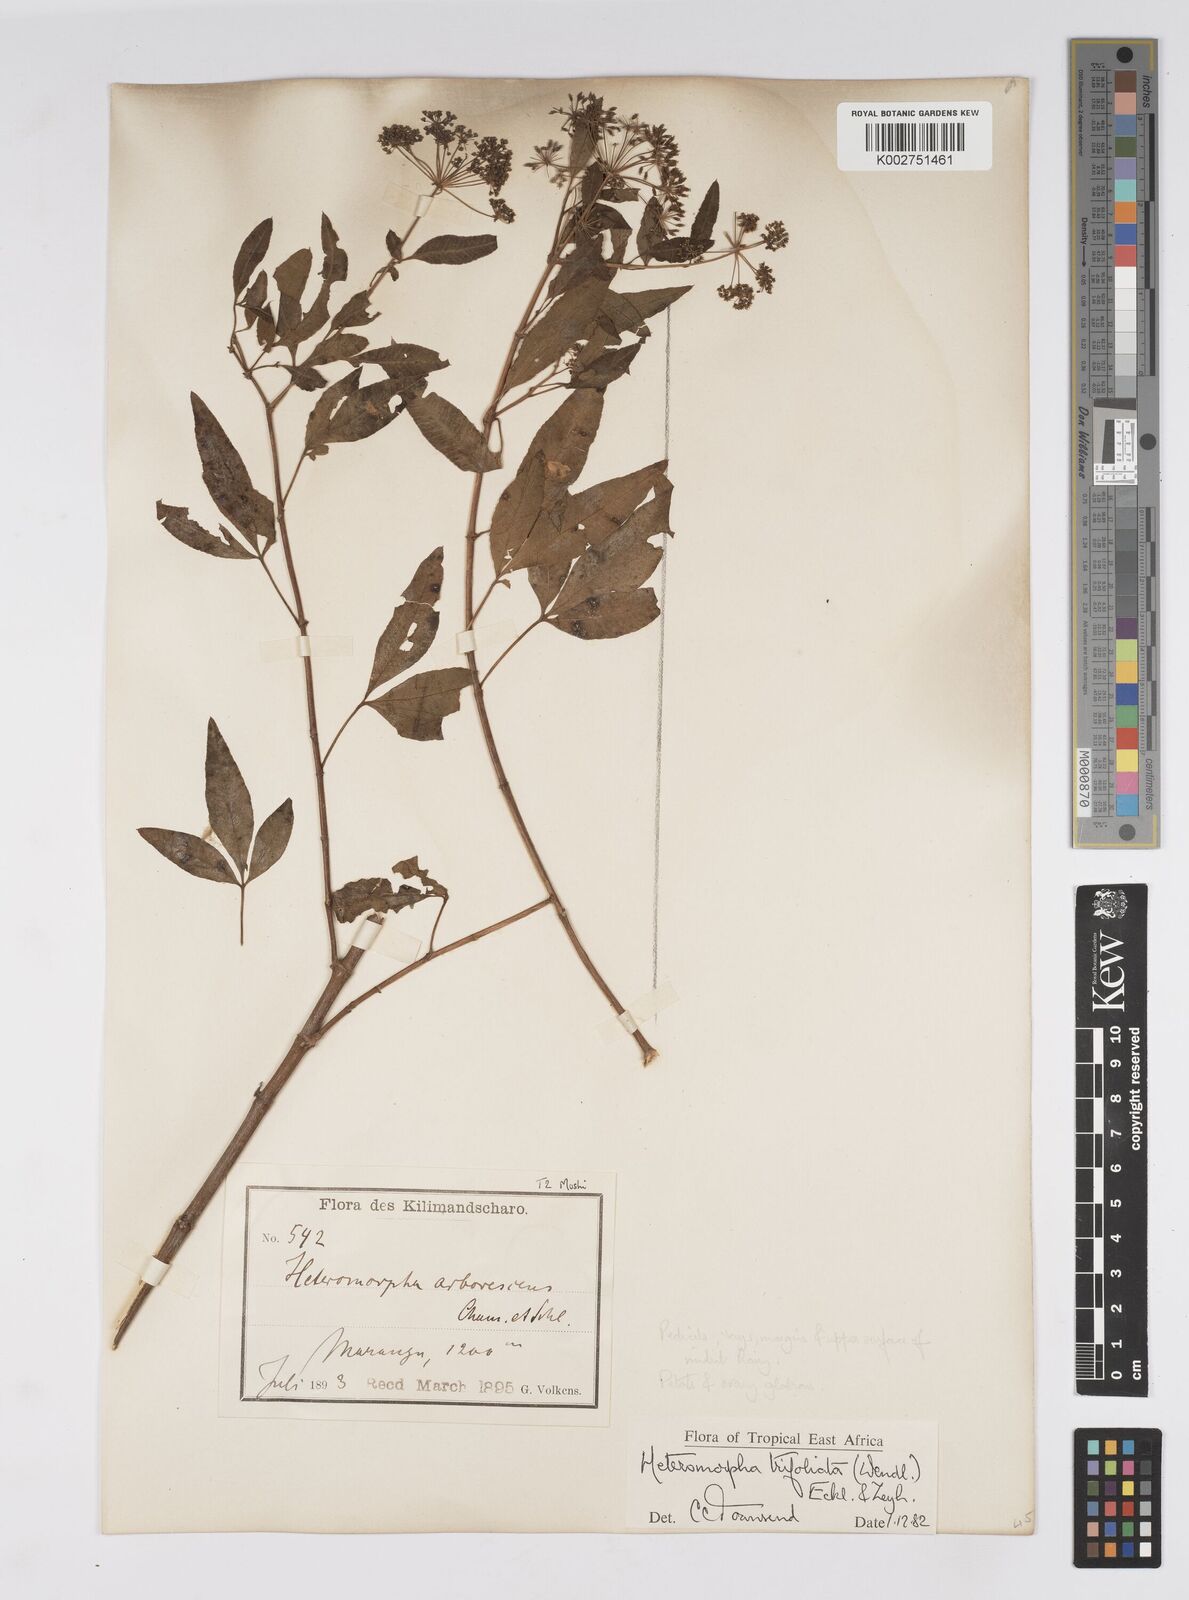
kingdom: Plantae
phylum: Tracheophyta
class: Magnoliopsida
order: Apiales
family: Apiaceae
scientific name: Apiaceae
